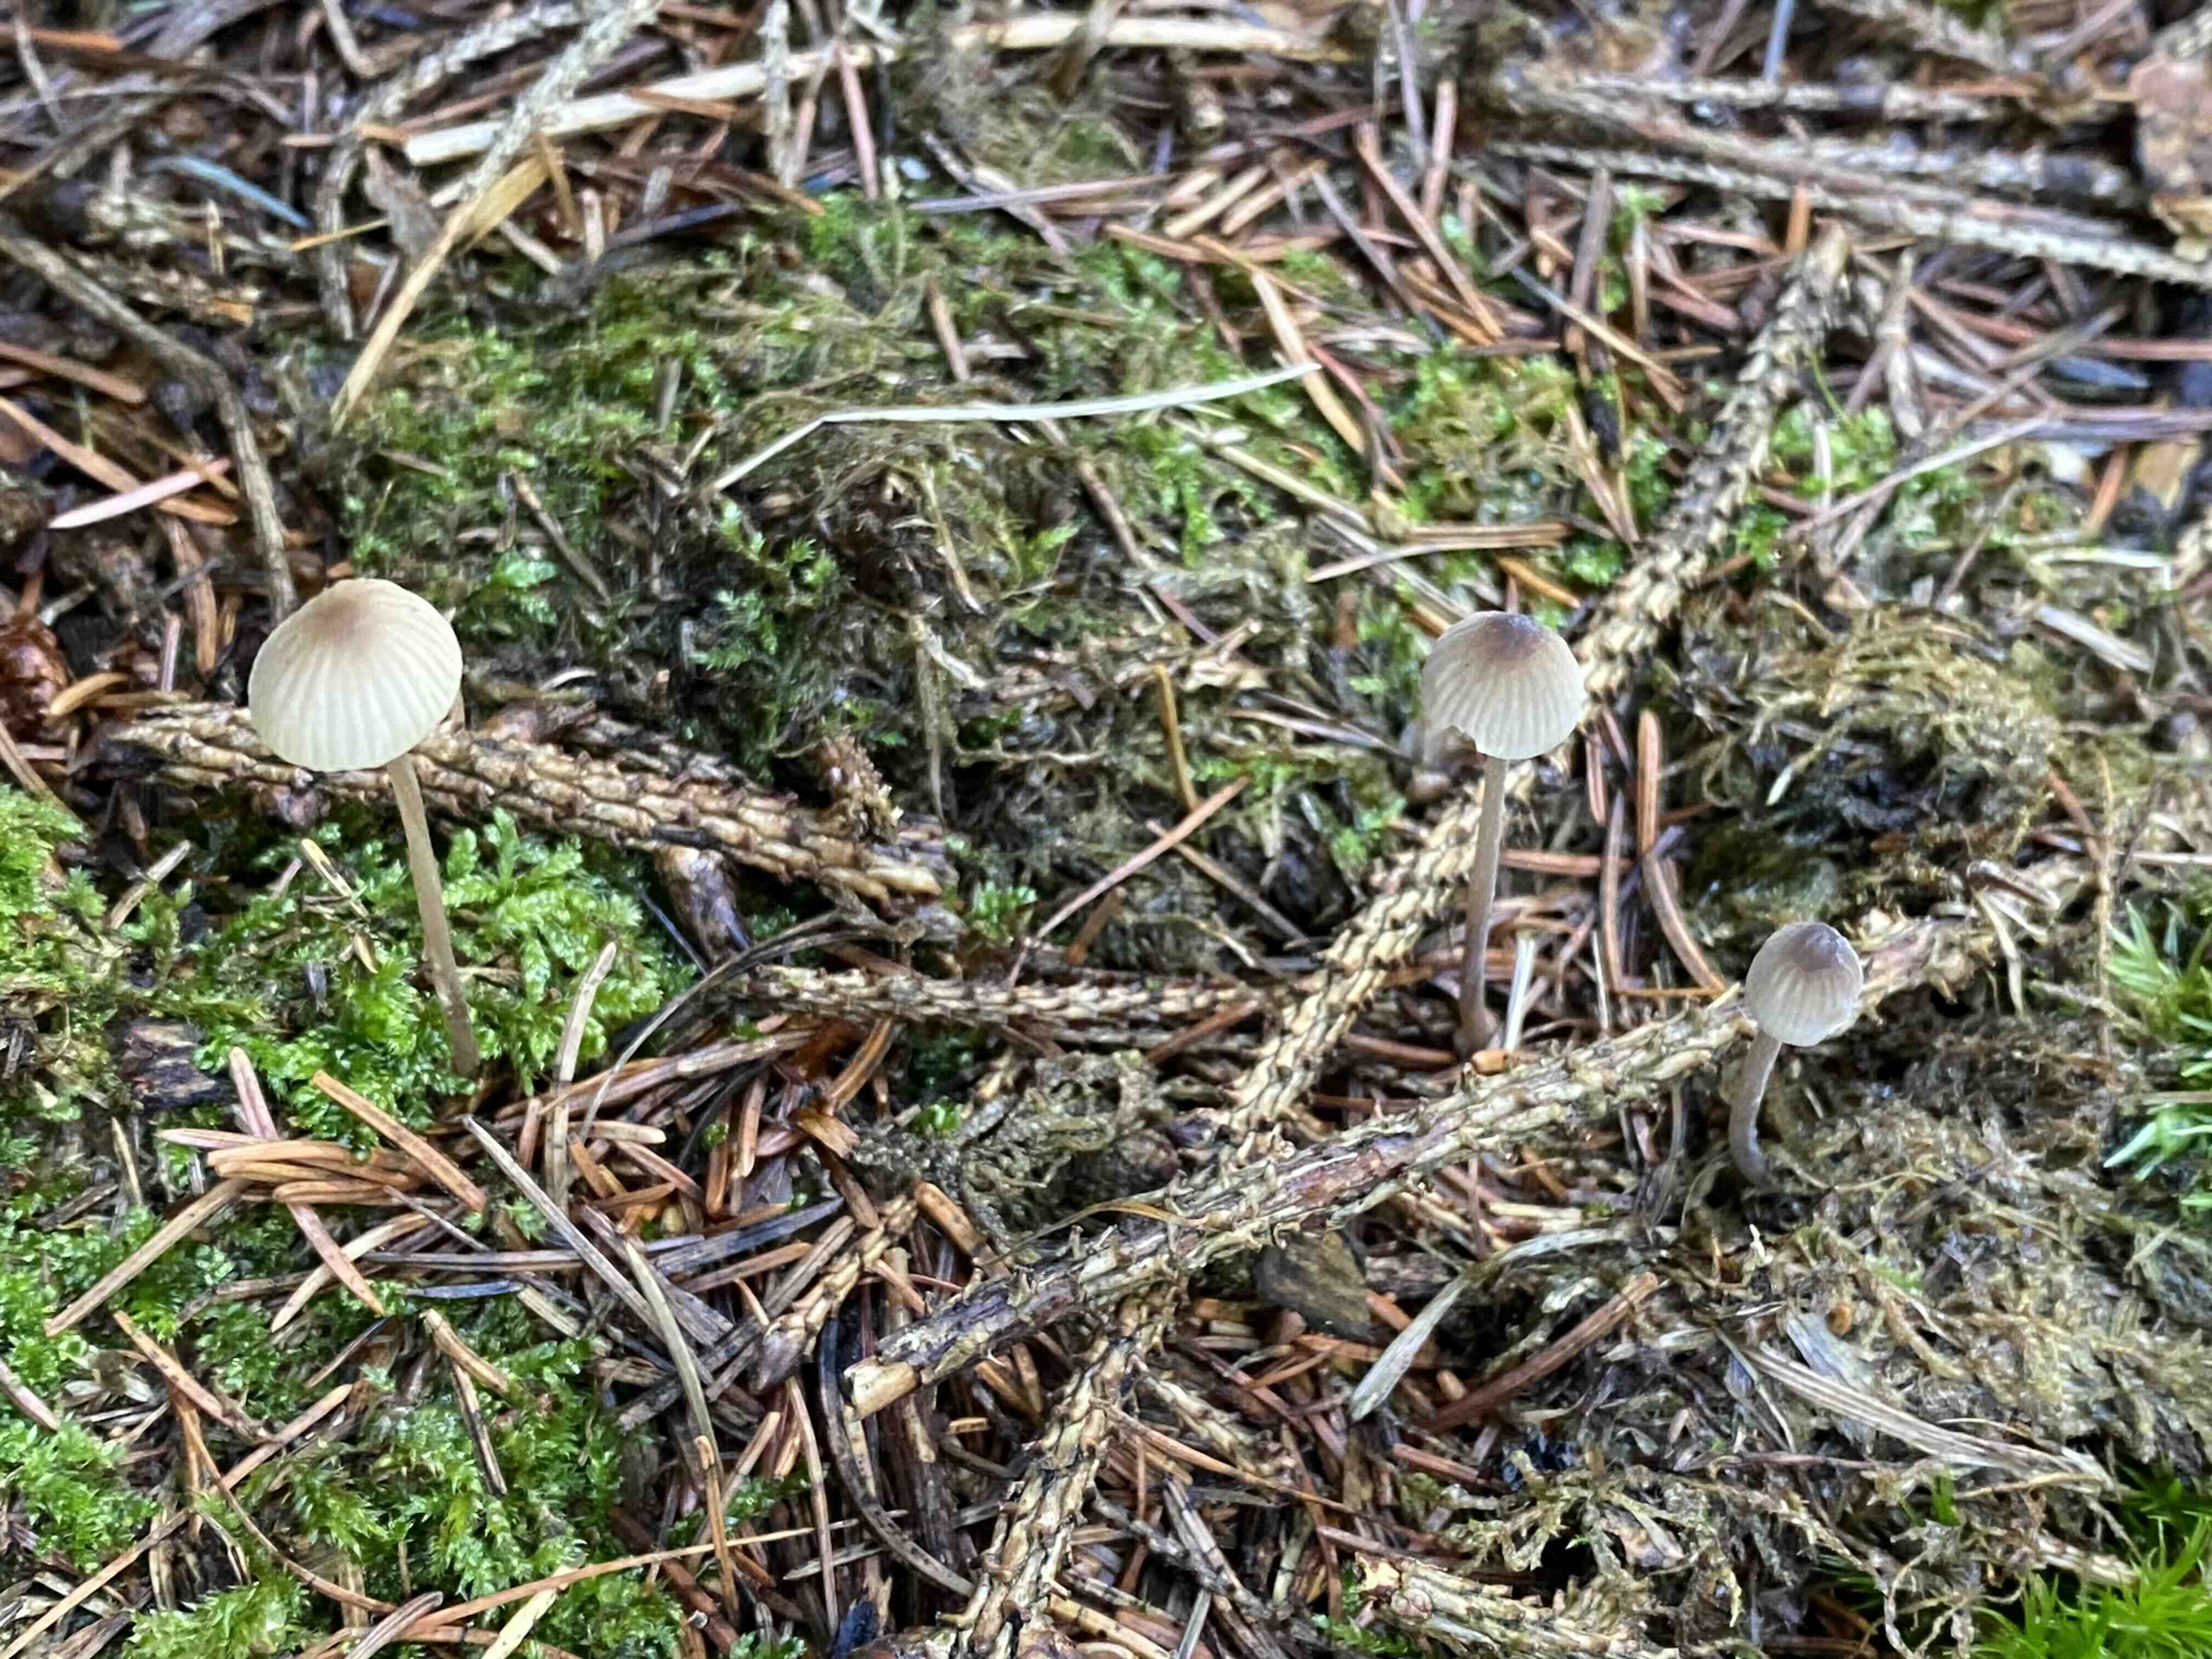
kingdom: Fungi
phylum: Basidiomycota
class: Agaricomycetes
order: Agaricales
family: Mycenaceae
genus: Mycena
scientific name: Mycena galopus
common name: hvidmælket huesvamp
